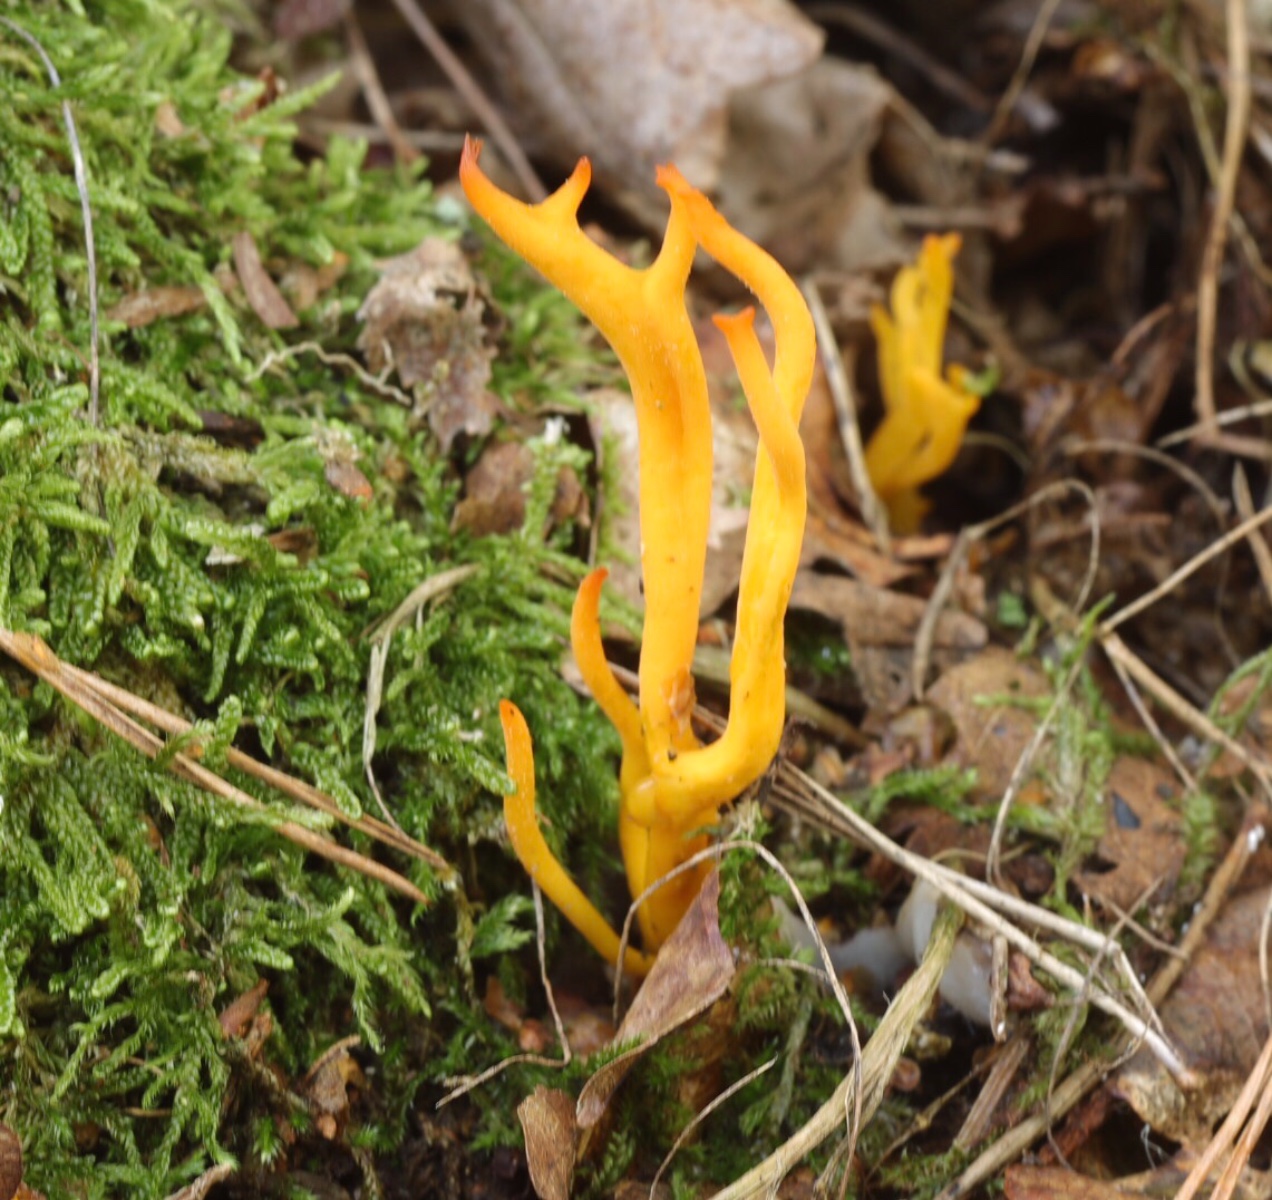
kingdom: Fungi
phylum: Basidiomycota
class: Dacrymycetes
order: Dacrymycetales
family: Dacrymycetaceae
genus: Calocera
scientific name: Calocera viscosa
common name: almindelig guldgaffel
